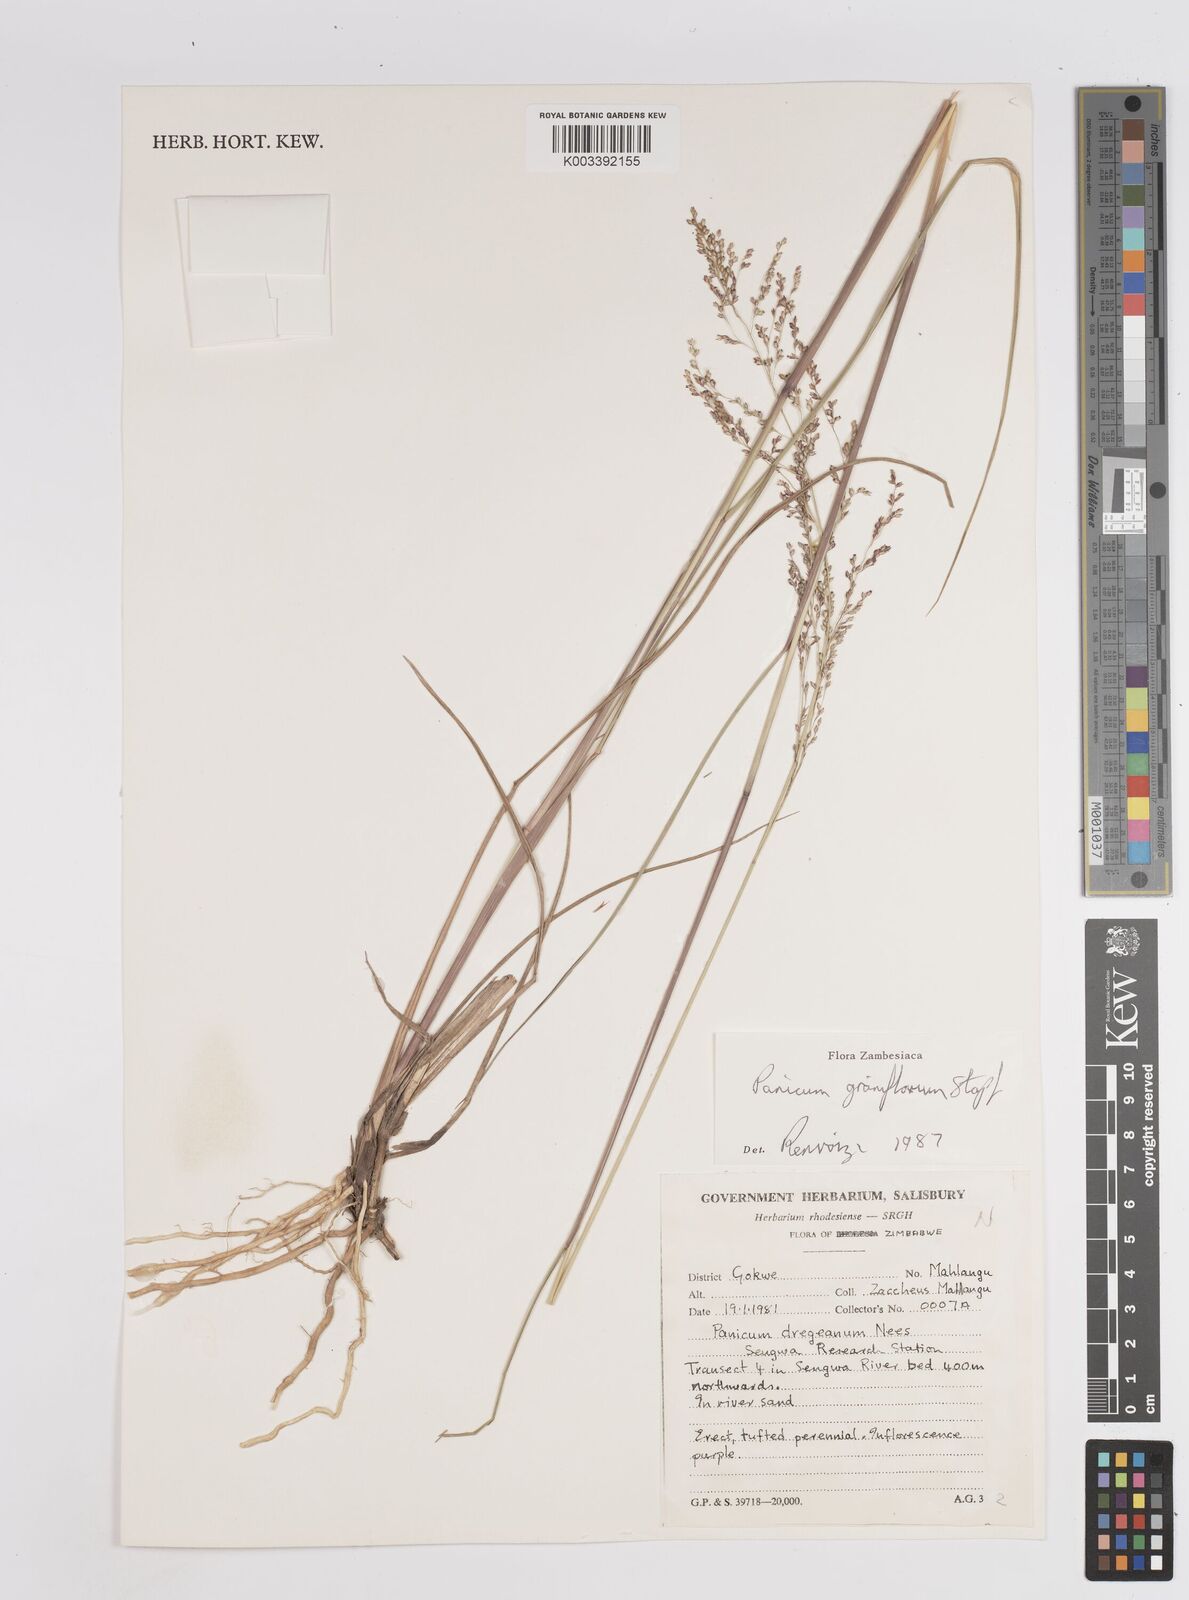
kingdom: Plantae
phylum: Tracheophyta
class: Liliopsida
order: Poales
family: Poaceae
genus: Panicum
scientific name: Panicum graniflorum
